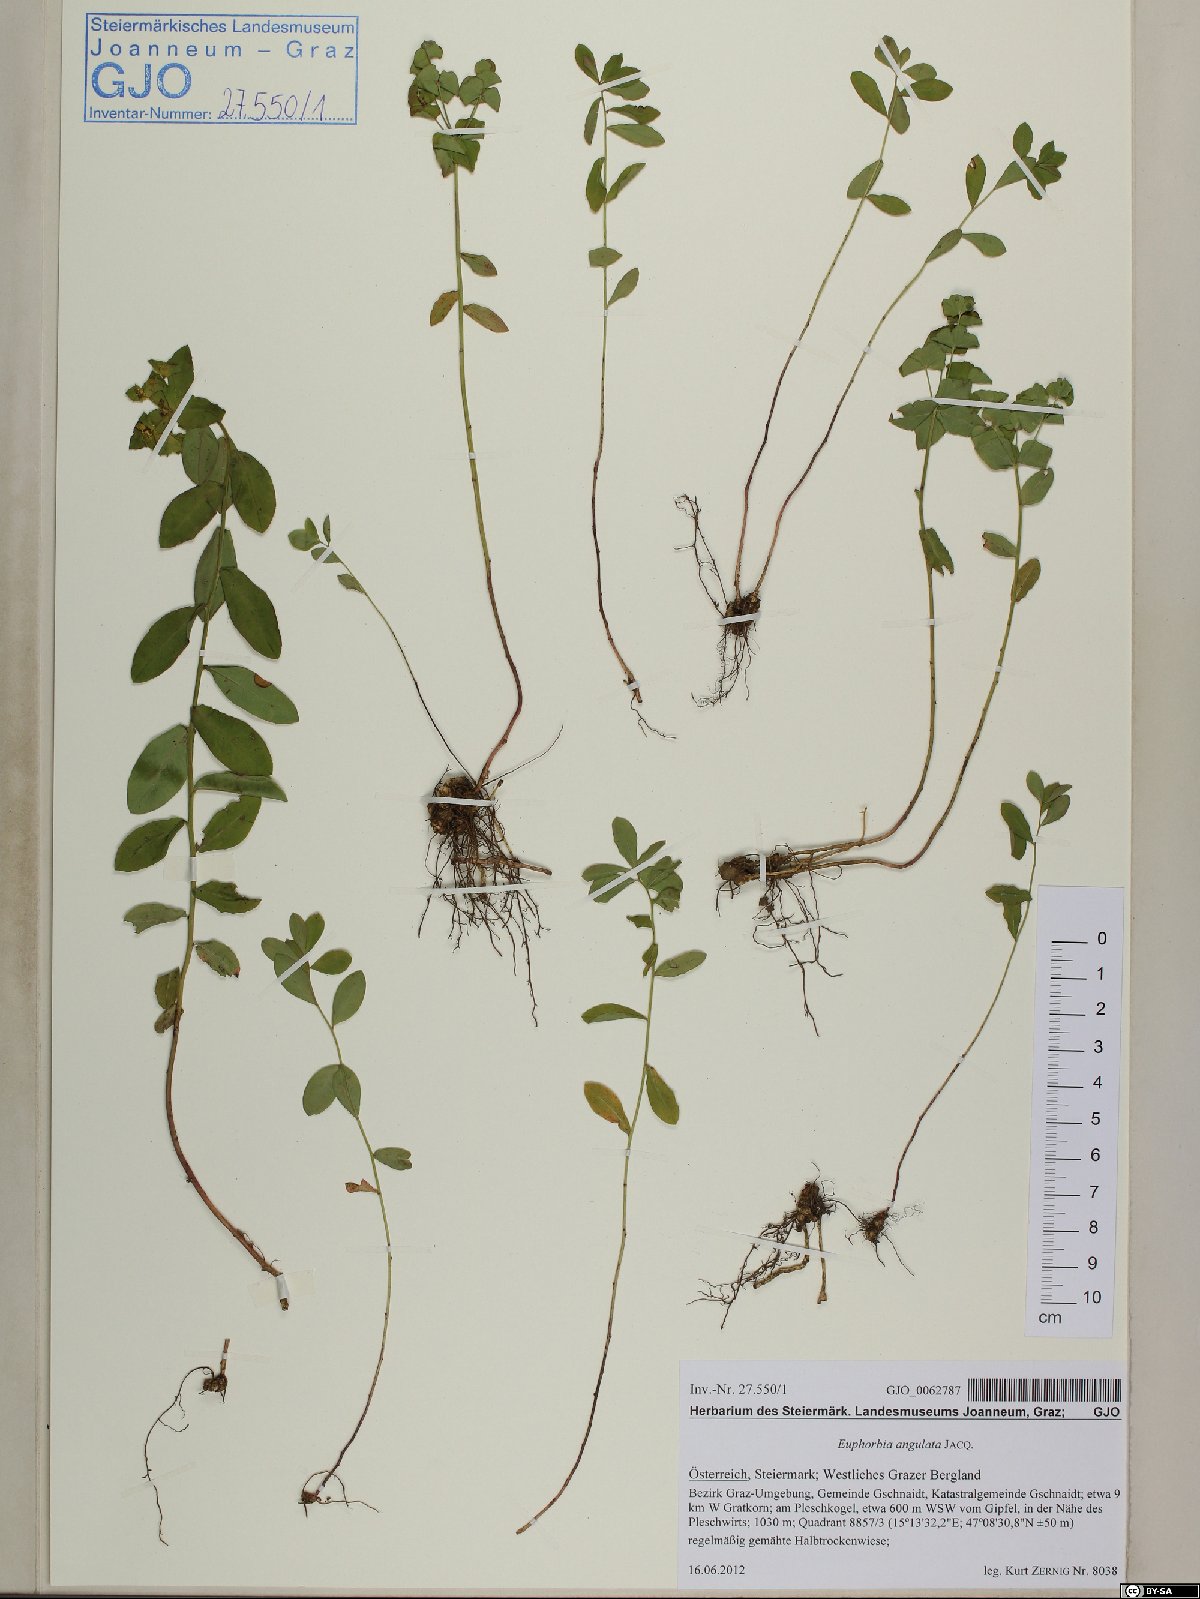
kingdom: Plantae
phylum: Tracheophyta
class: Magnoliopsida
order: Malpighiales
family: Euphorbiaceae
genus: Euphorbia
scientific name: Euphorbia angulata
